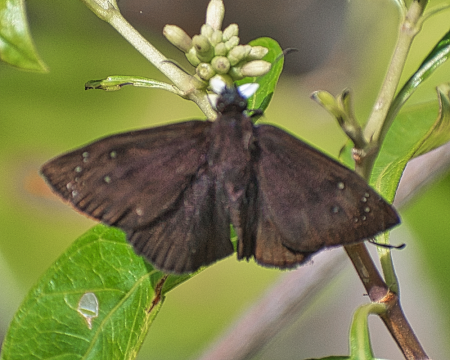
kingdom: Animalia
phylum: Arthropoda
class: Insecta
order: Lepidoptera
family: Hesperiidae
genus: Ephyriades
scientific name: Ephyriades brunnea
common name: Florida Duskywing
